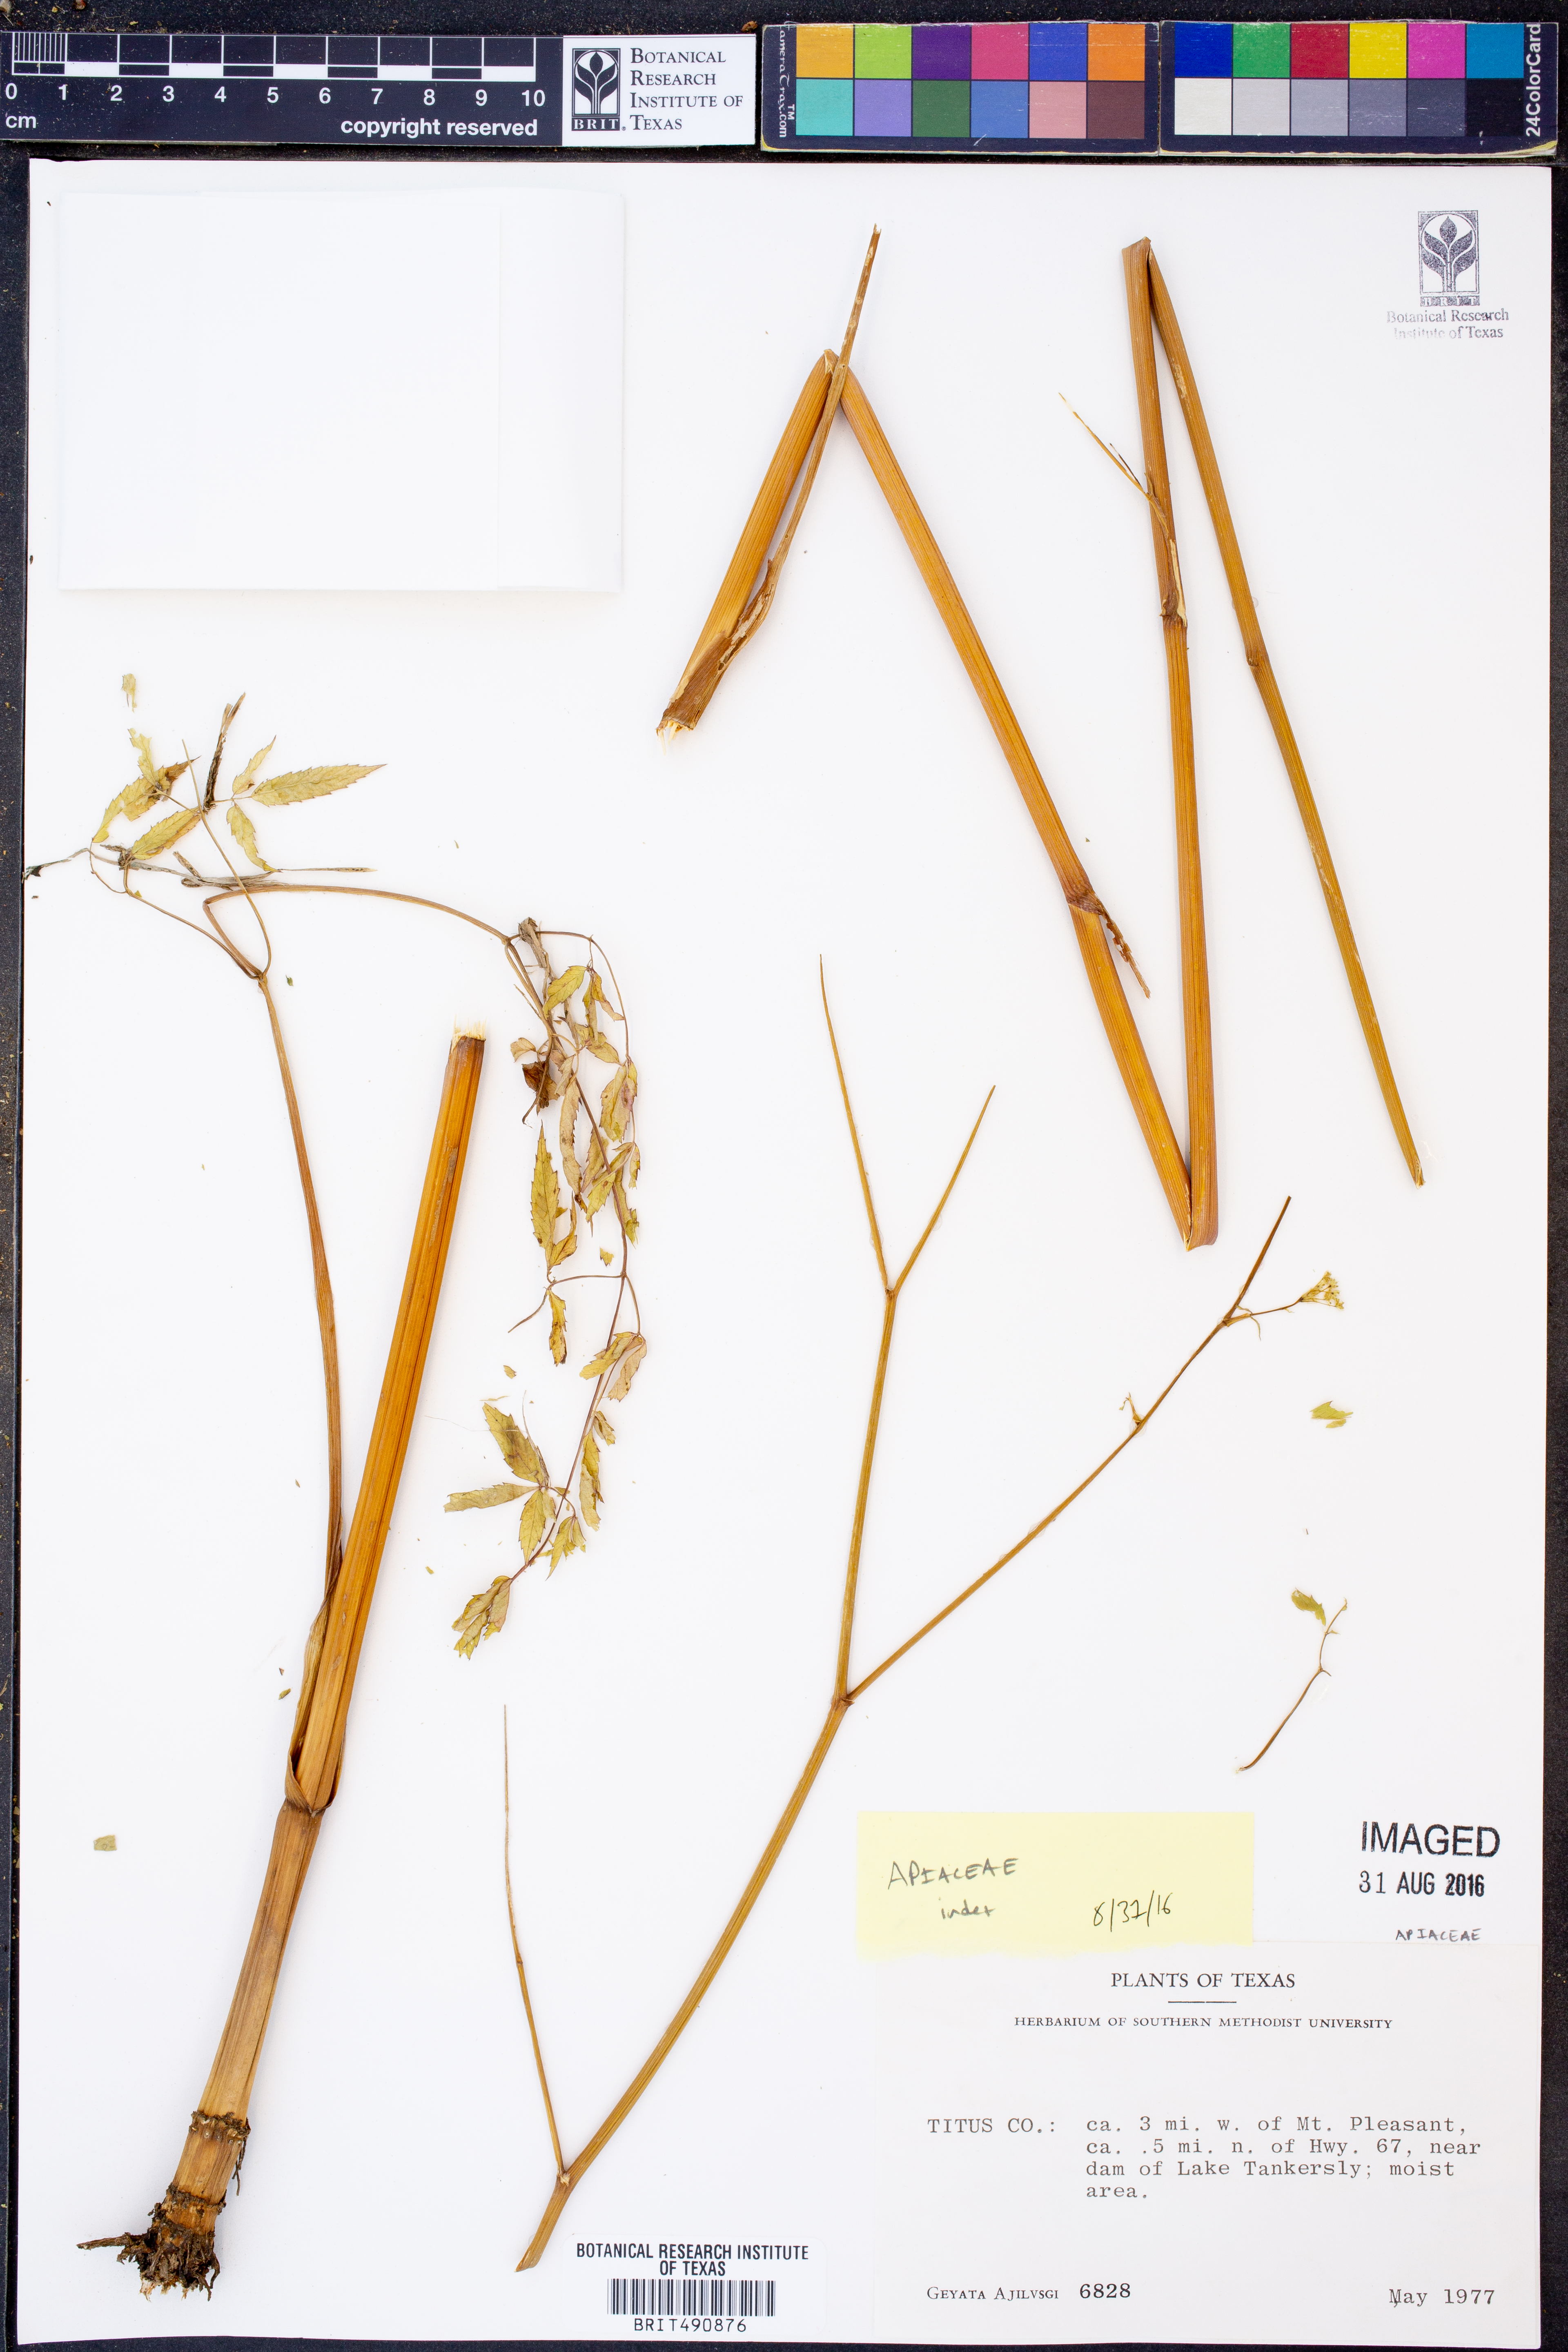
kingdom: Plantae
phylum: Tracheophyta
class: Magnoliopsida
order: Apiales
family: Apiaceae
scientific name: Apiaceae
